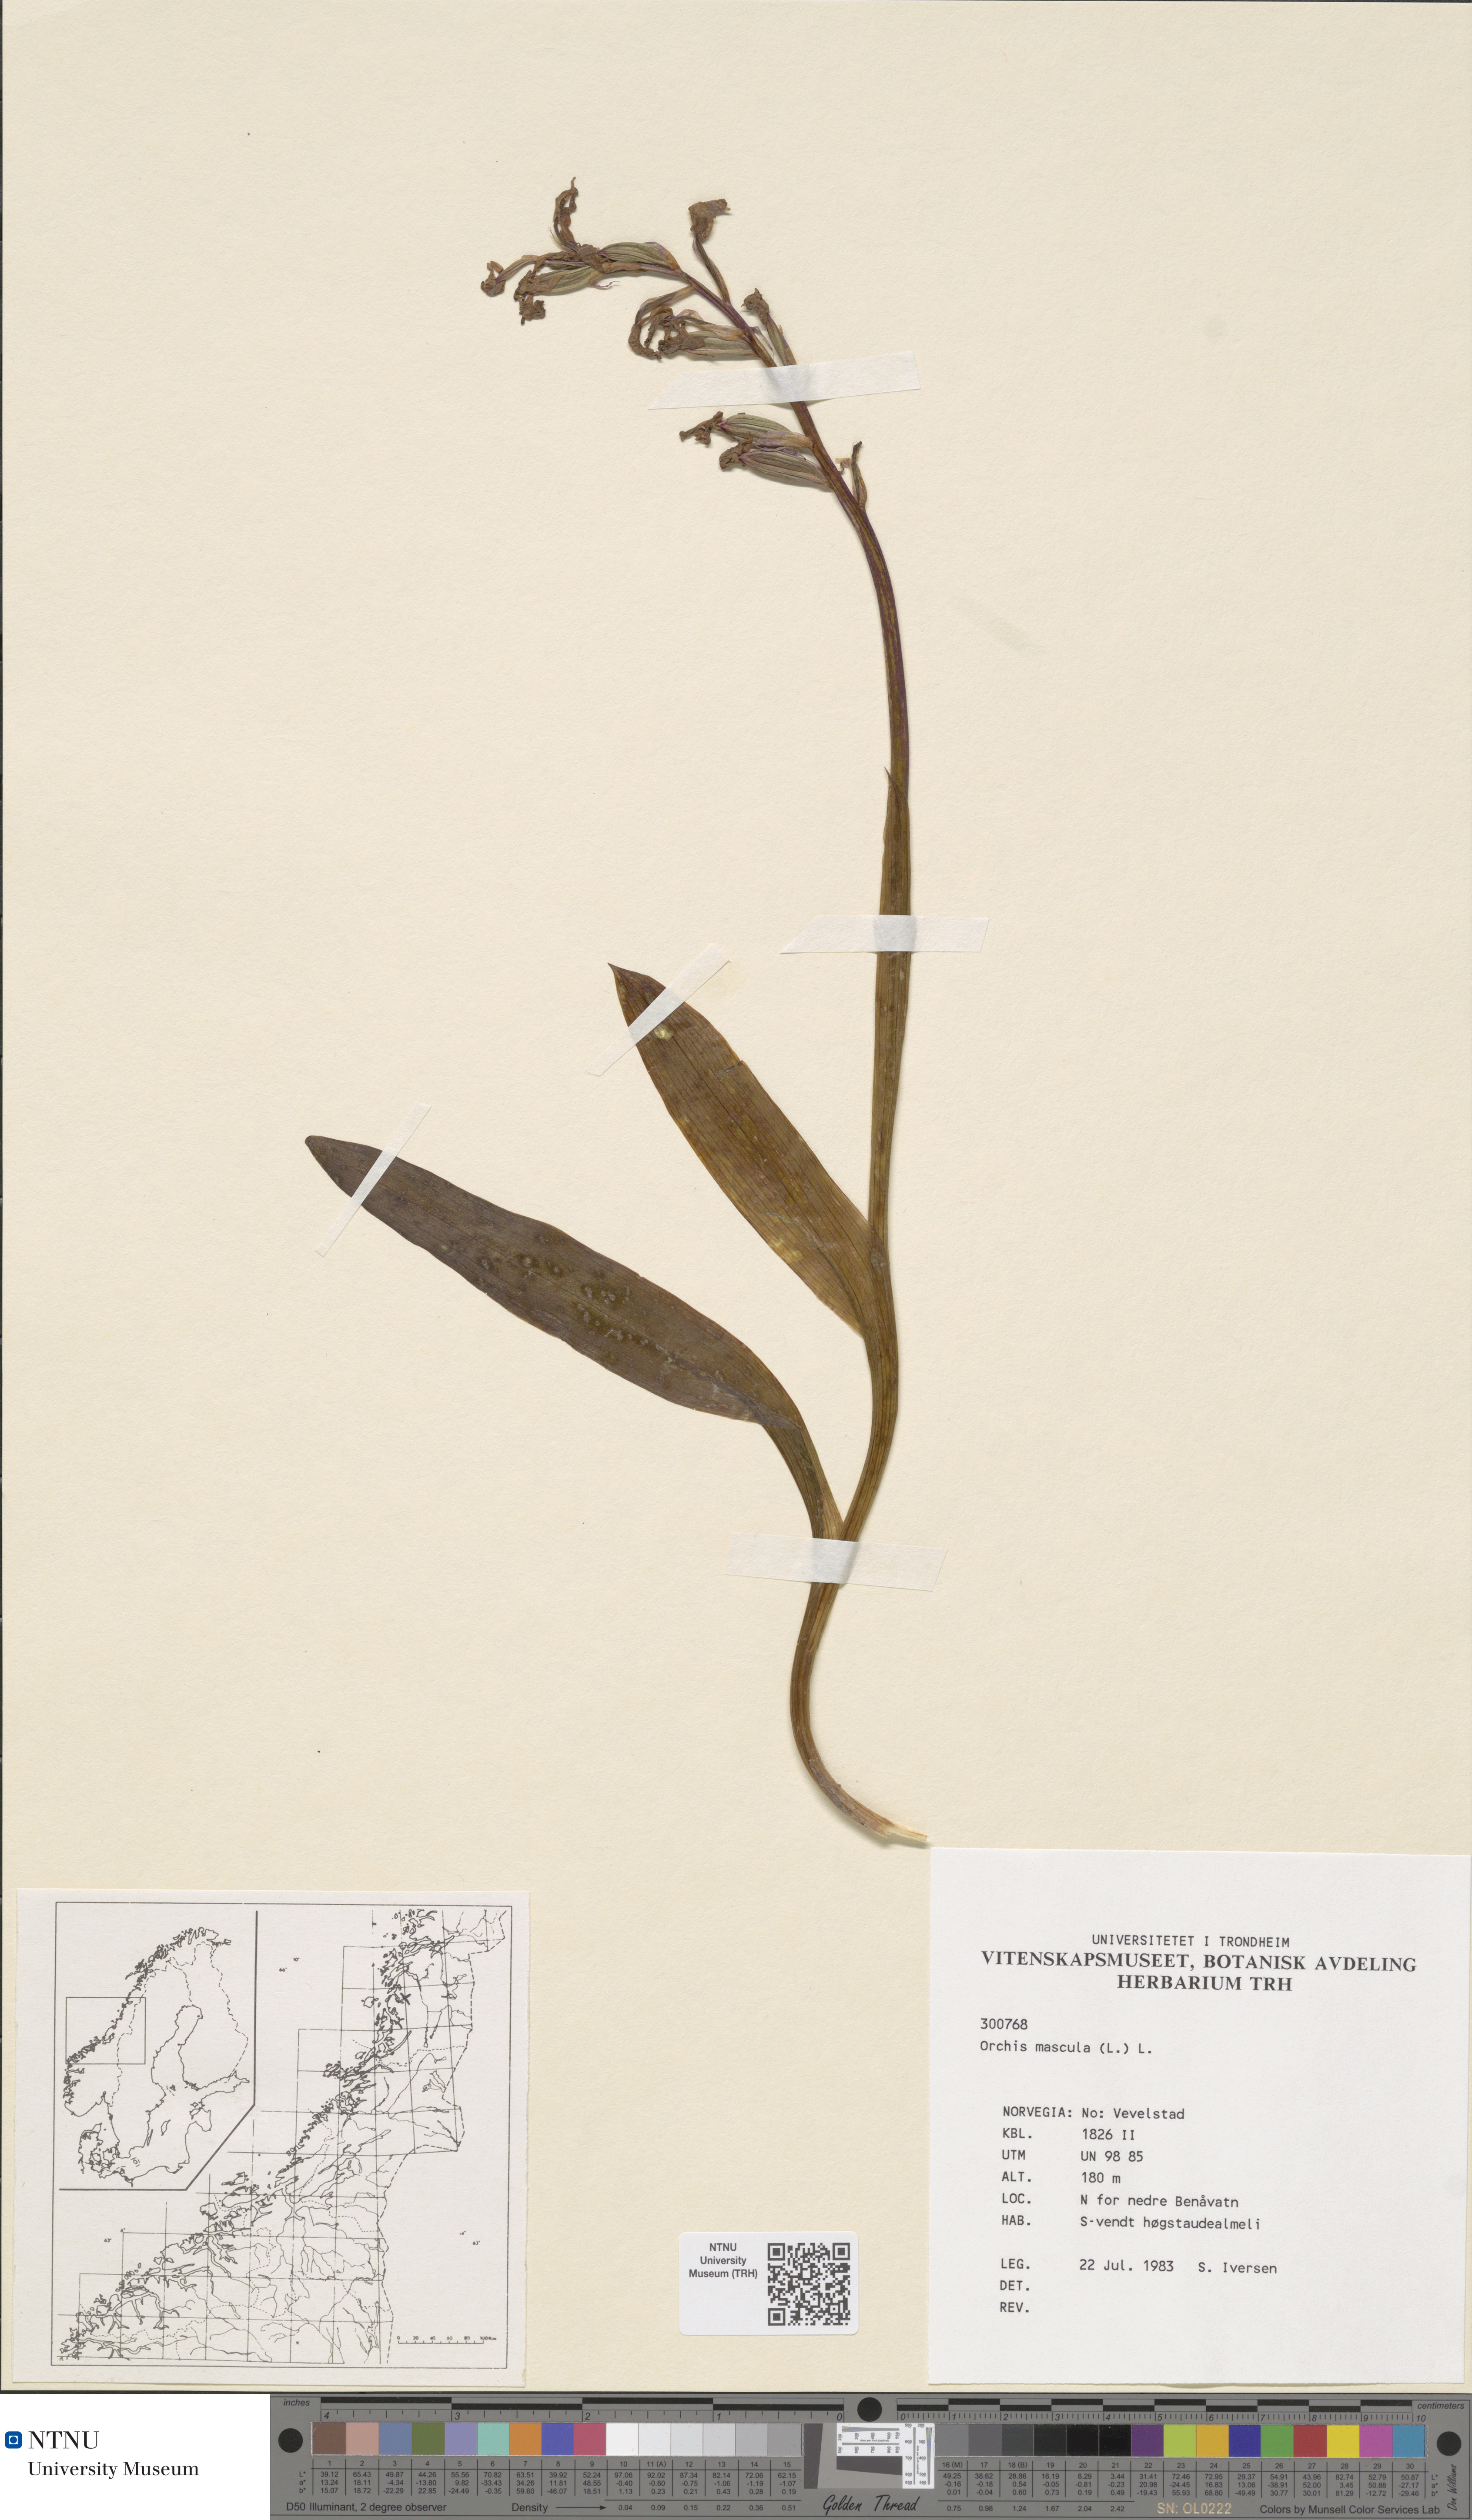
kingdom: Plantae
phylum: Tracheophyta
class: Liliopsida
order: Asparagales
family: Orchidaceae
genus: Orchis
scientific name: Orchis mascula
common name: Early-purple orchid
